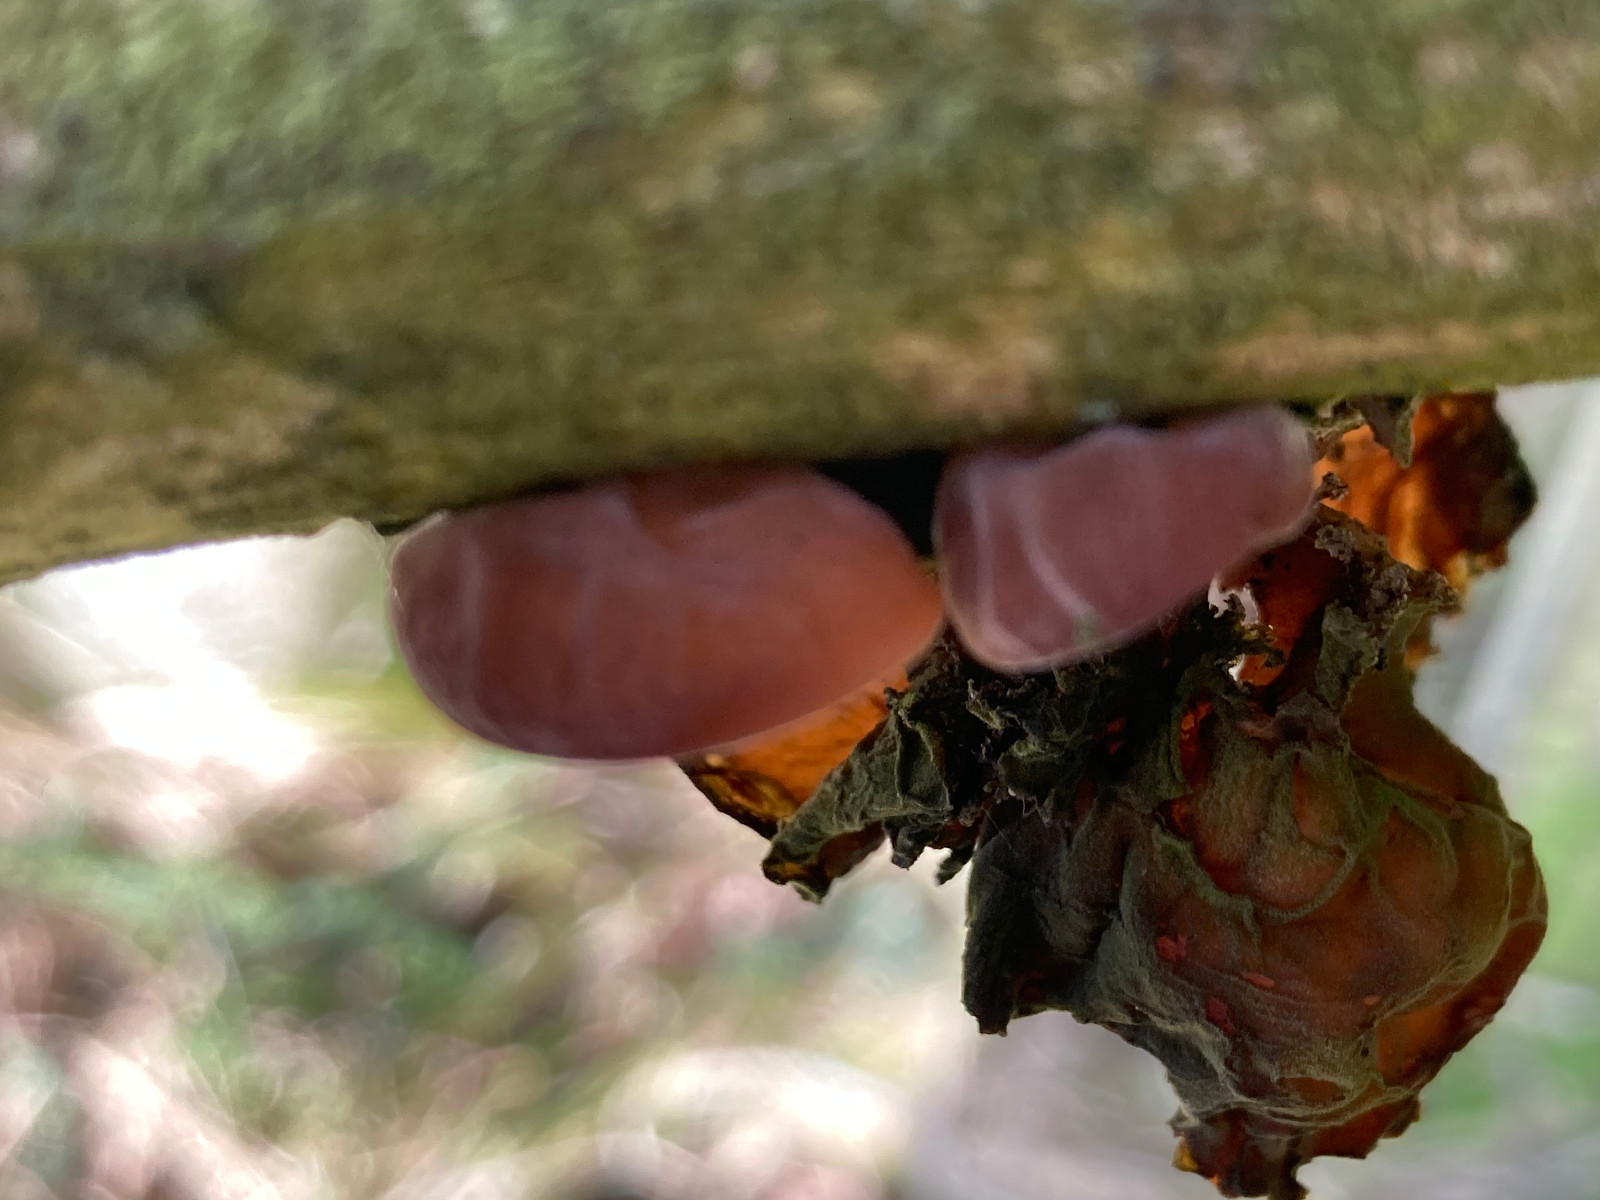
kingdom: Fungi
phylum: Basidiomycota
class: Agaricomycetes
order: Auriculariales
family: Auriculariaceae
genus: Auricularia
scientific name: Auricularia auricula-judae
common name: almindelig judasøre
